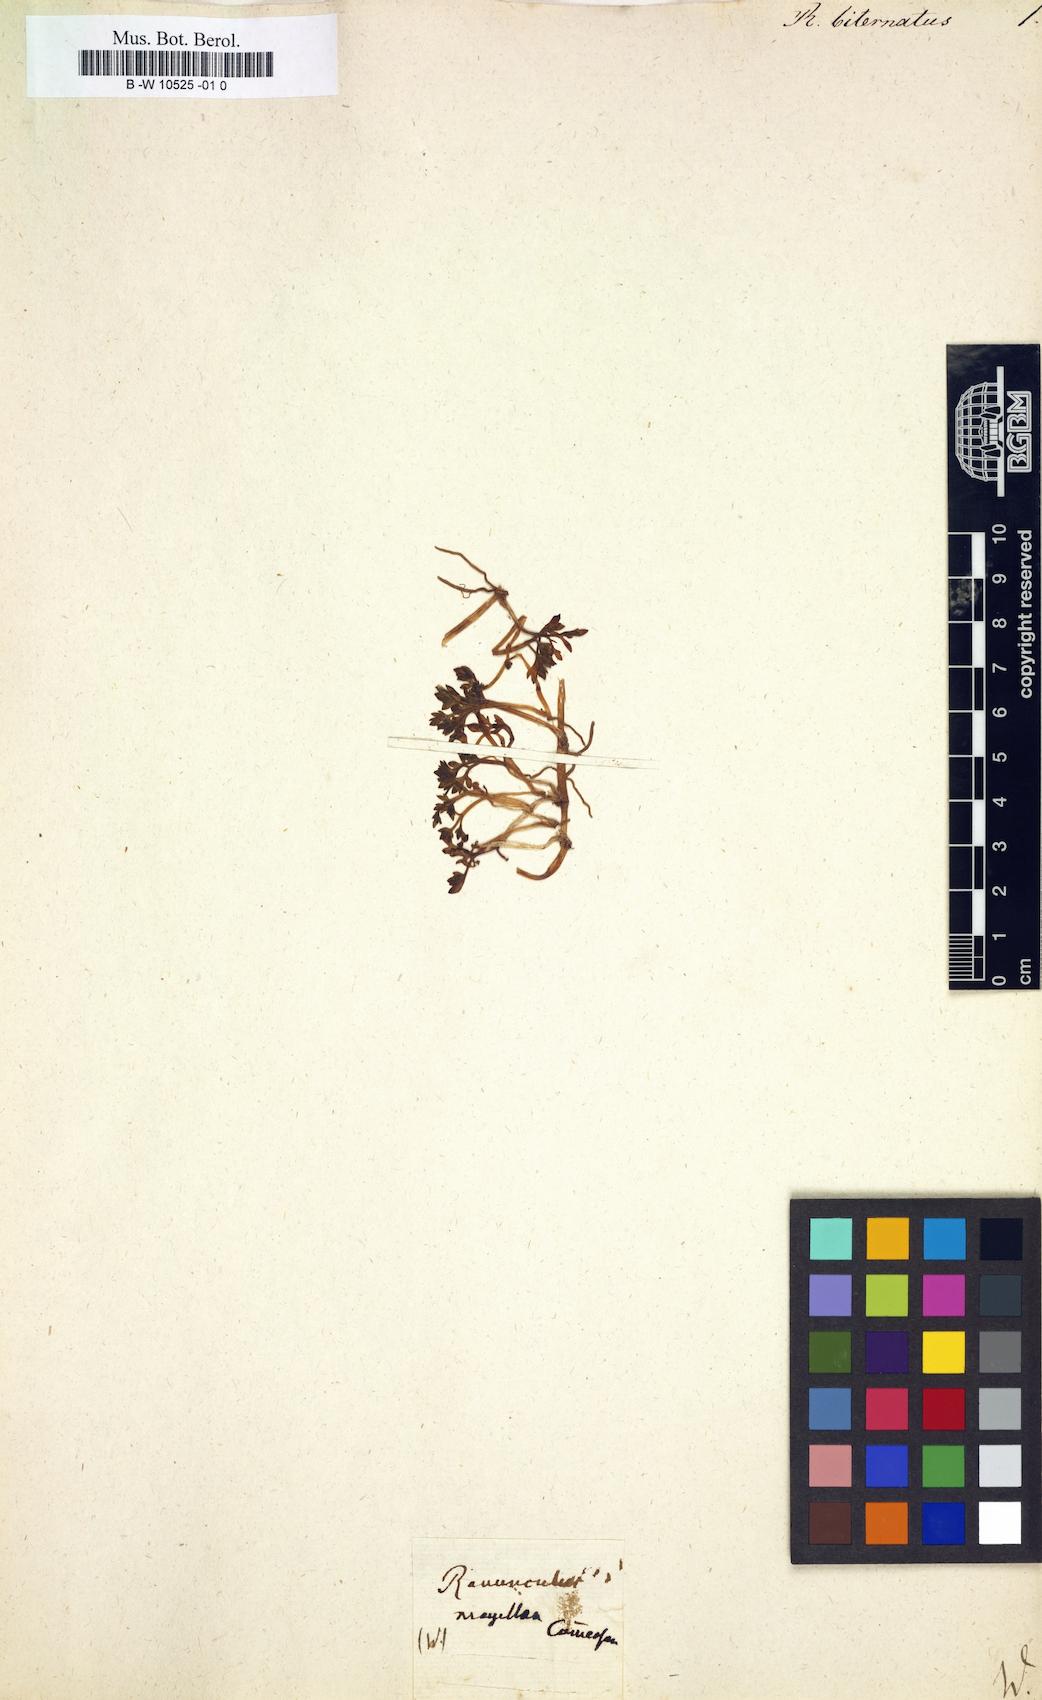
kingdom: Plantae
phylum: Tracheophyta
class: Magnoliopsida
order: Ranunculales
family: Ranunculaceae
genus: Ranunculus
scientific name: Ranunculus biternatus
